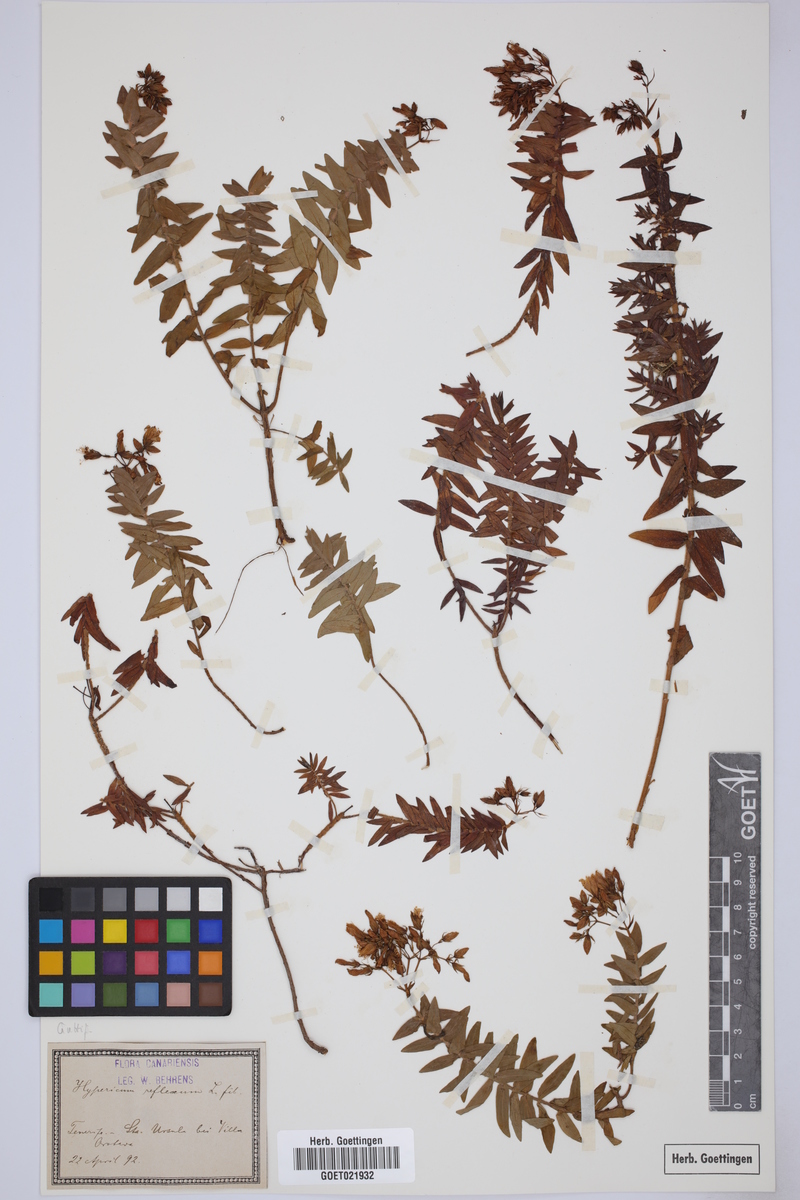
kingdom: Plantae
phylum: Tracheophyta
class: Magnoliopsida
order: Malpighiales
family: Hypericaceae
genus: Hypericum
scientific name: Hypericum reflexum
